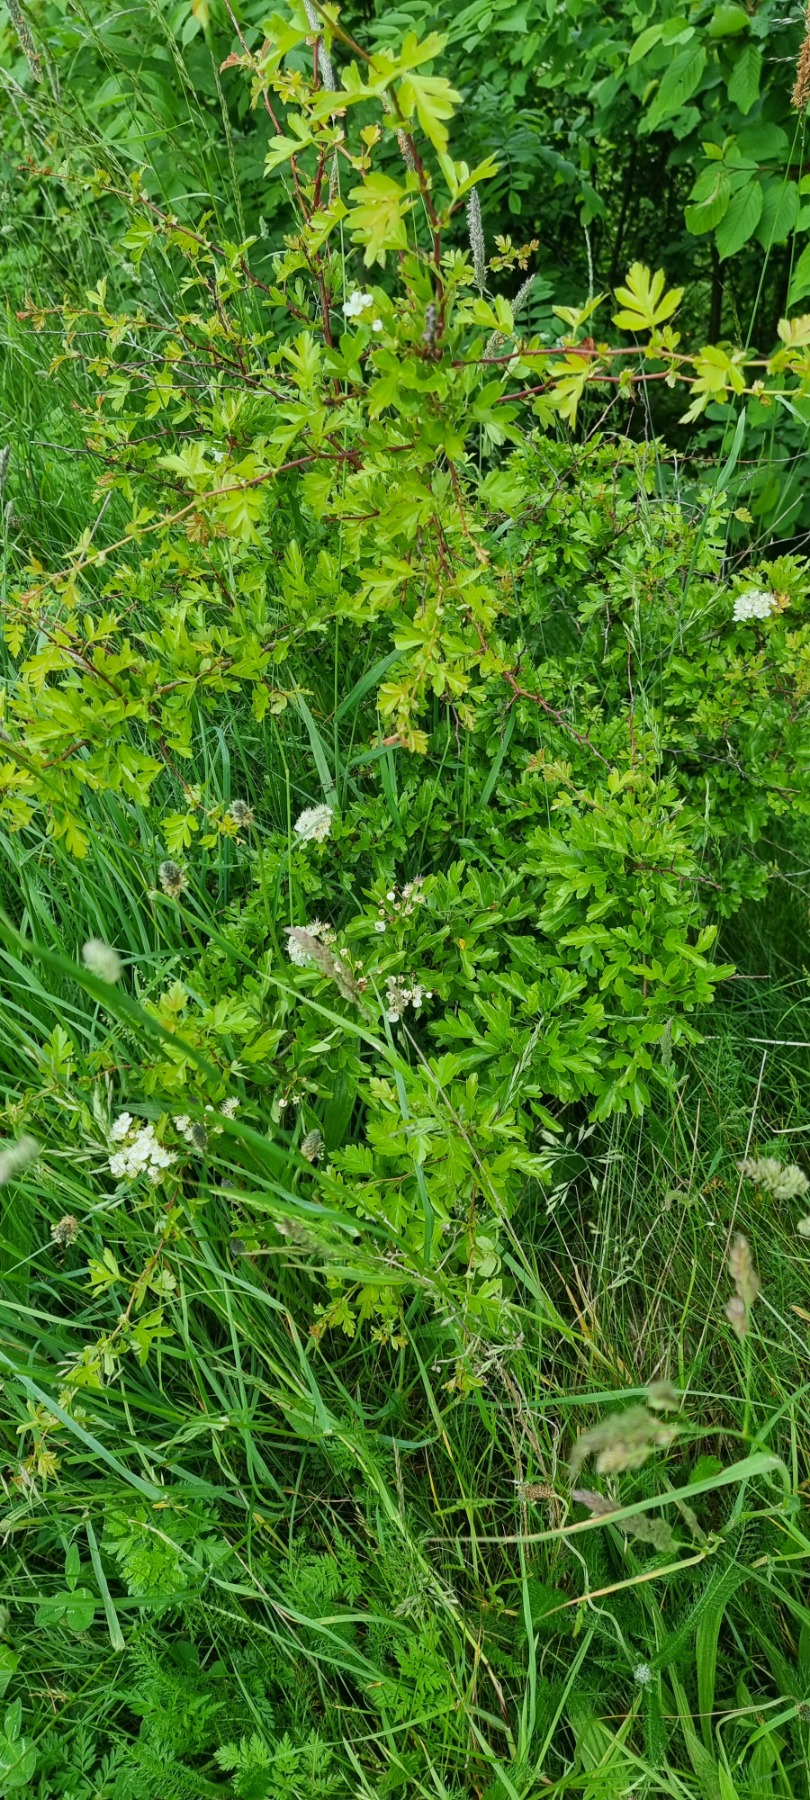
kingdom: Plantae
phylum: Tracheophyta
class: Magnoliopsida
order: Rosales
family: Rosaceae
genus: Crataegus
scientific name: Crataegus monogyna
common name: Engriflet hvidtjørn
